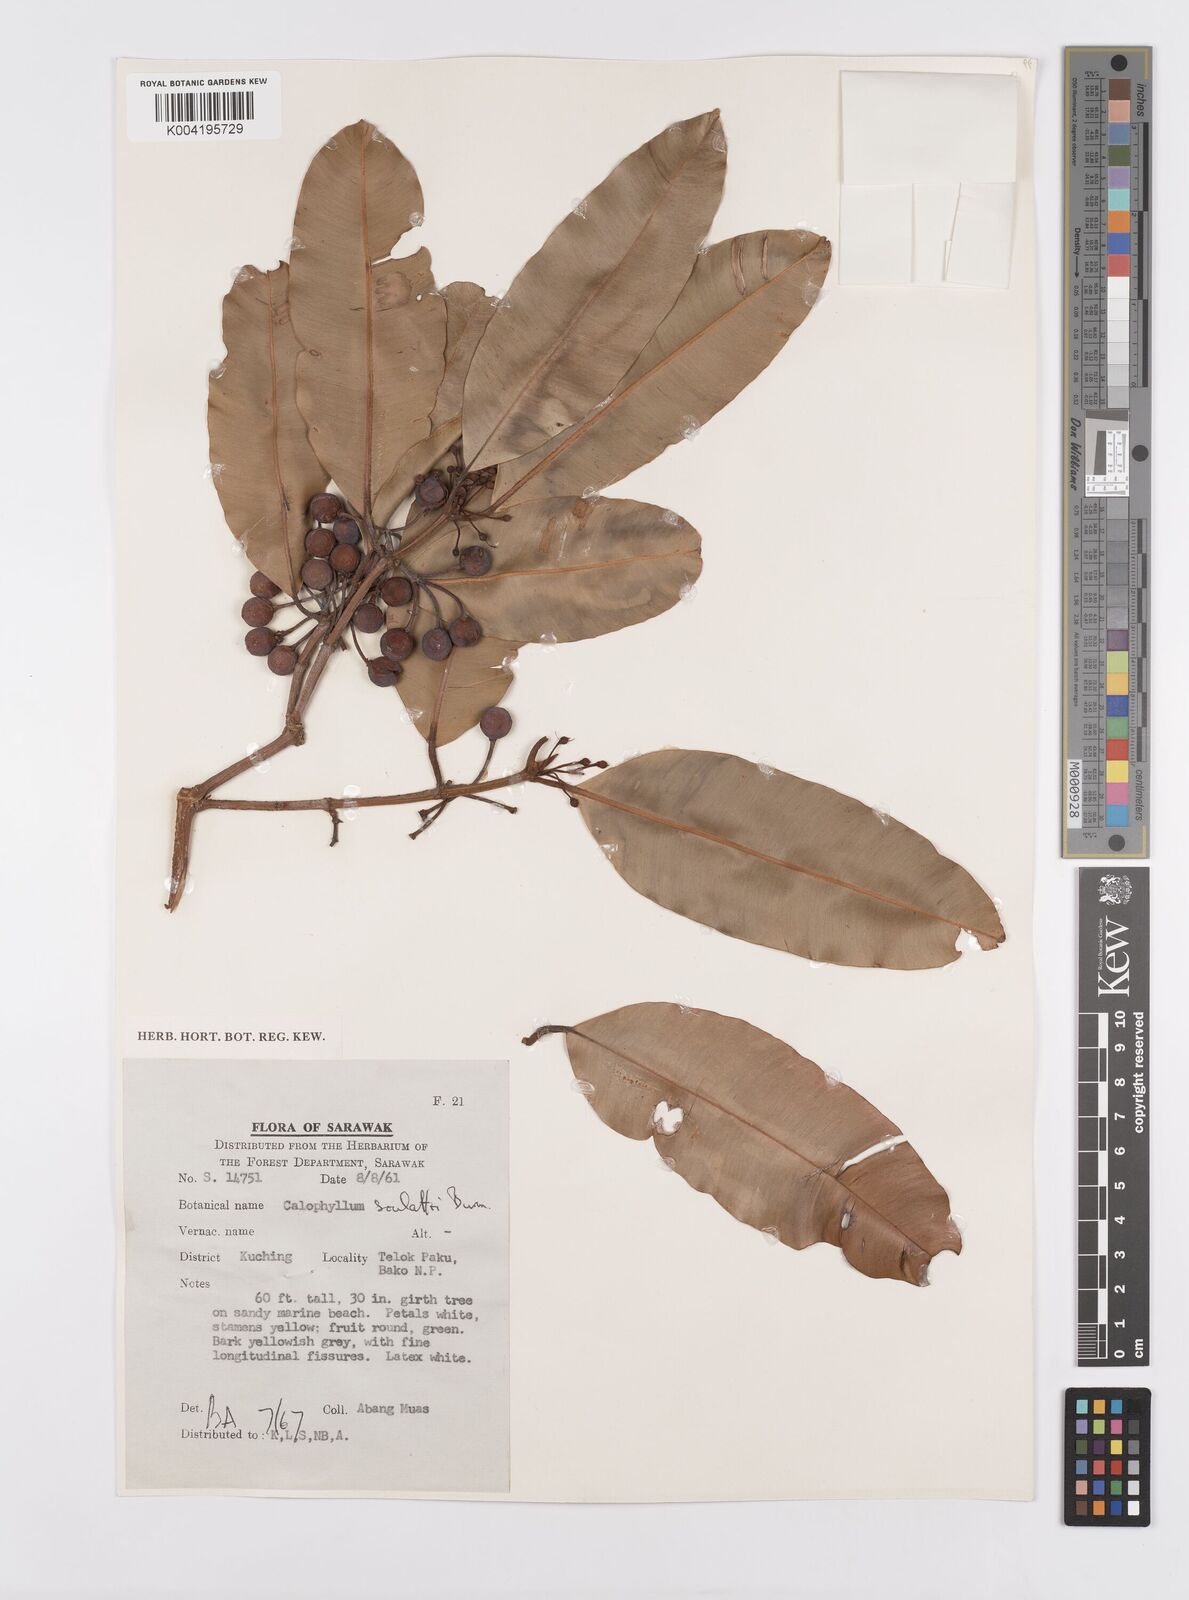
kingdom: Plantae
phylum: Tracheophyta
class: Magnoliopsida
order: Malpighiales
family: Calophyllaceae
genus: Calophyllum
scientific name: Calophyllum soulattri
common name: Bitangoor boonot
